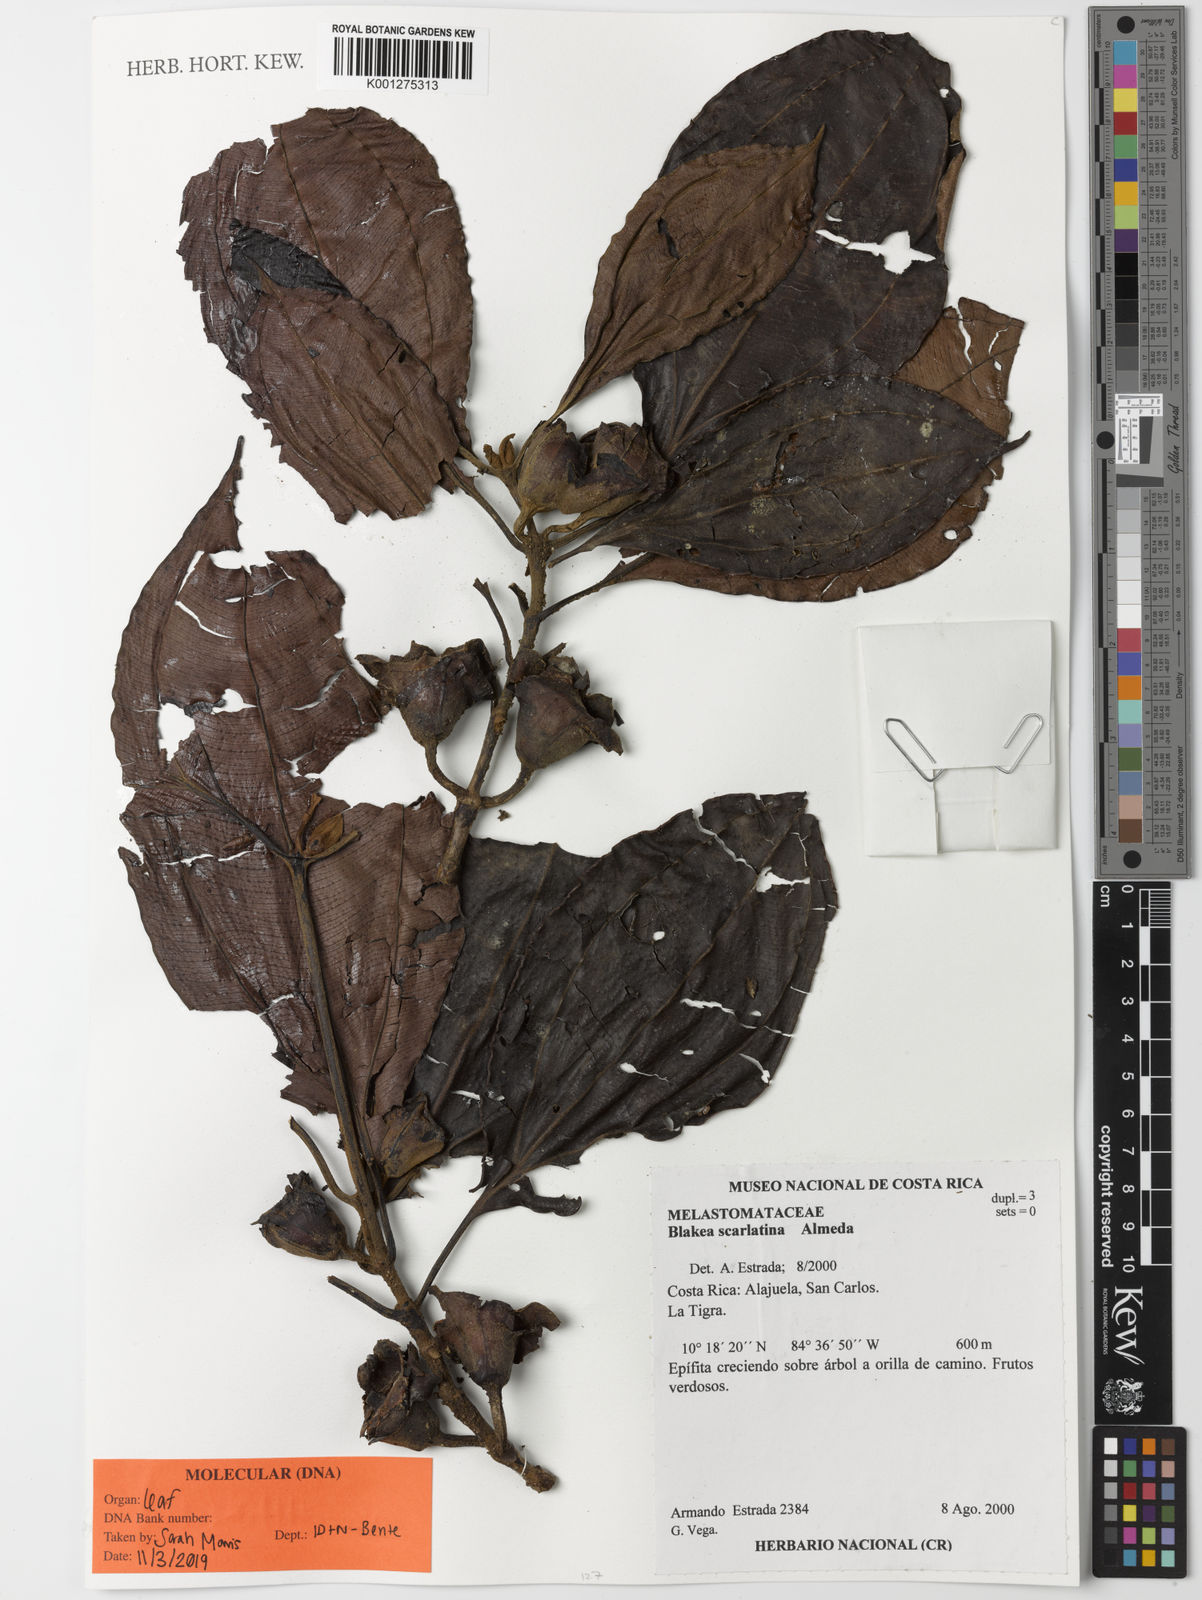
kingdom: Plantae
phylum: Tracheophyta
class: Magnoliopsida
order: Myrtales
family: Melastomataceae
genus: Blakea
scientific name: Blakea scarlatina
